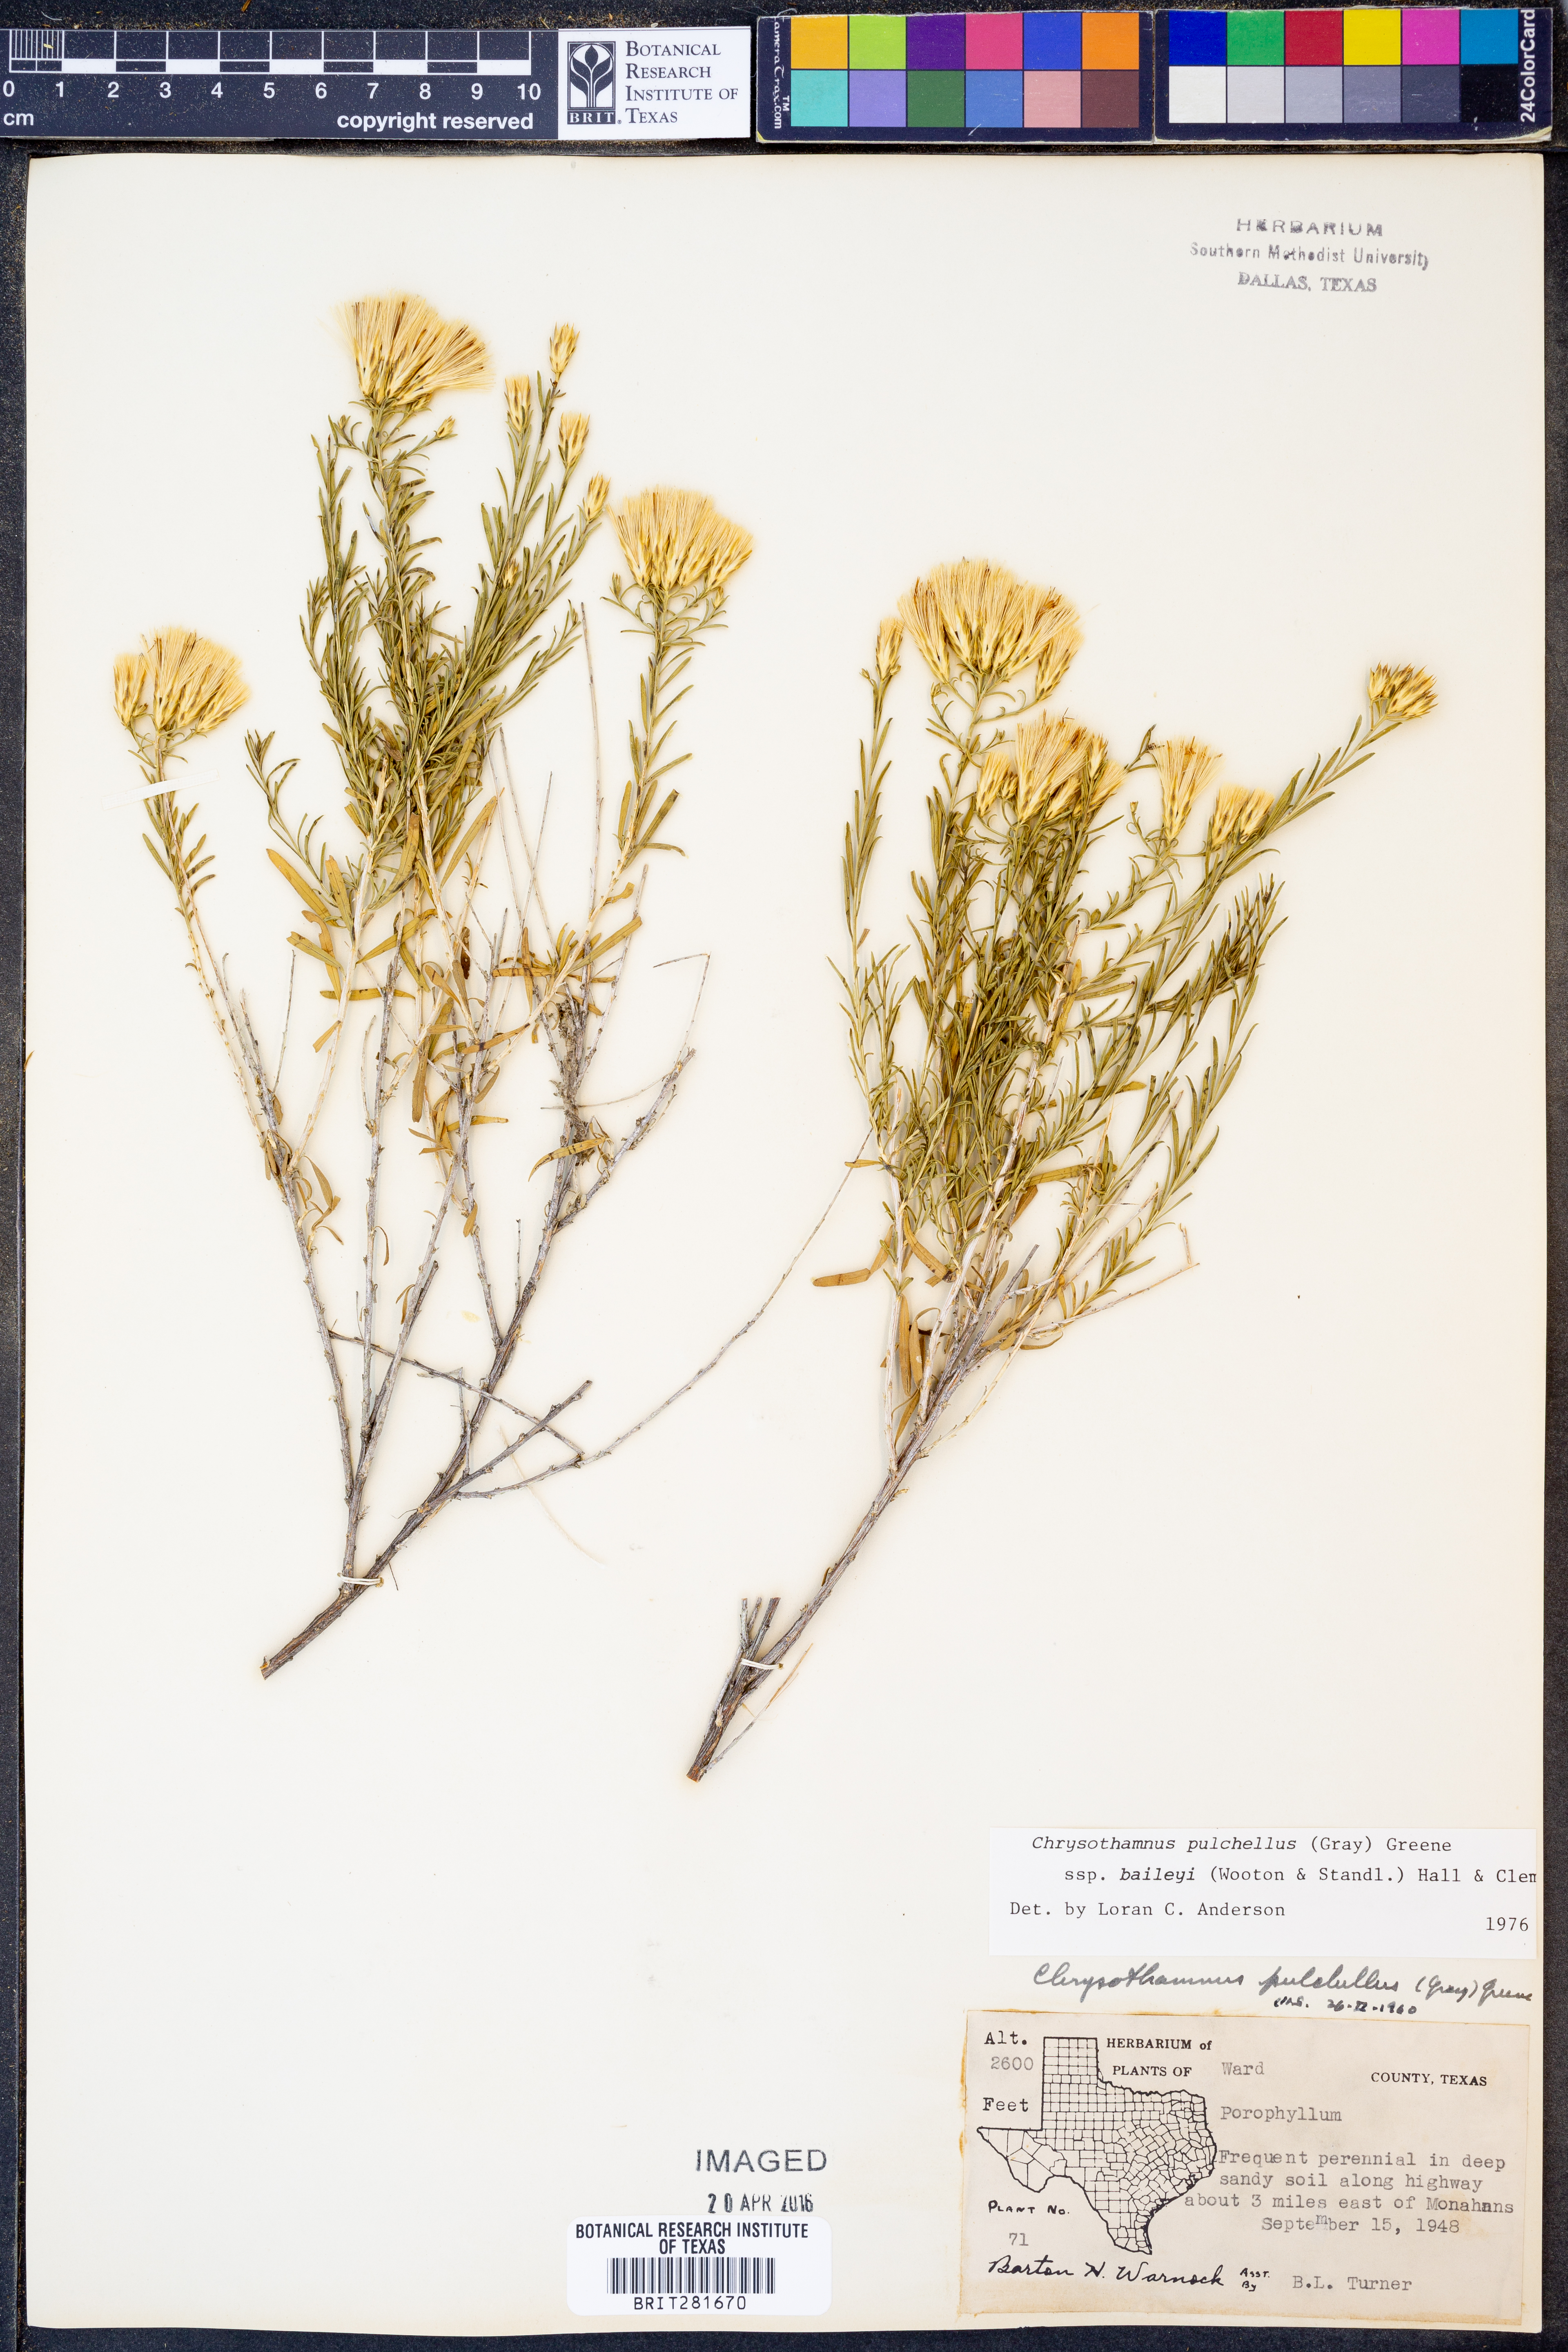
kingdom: Plantae
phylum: Tracheophyta
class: Magnoliopsida
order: Asterales
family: Asteraceae
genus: Lorandersonia
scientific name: Lorandersonia baileyi
